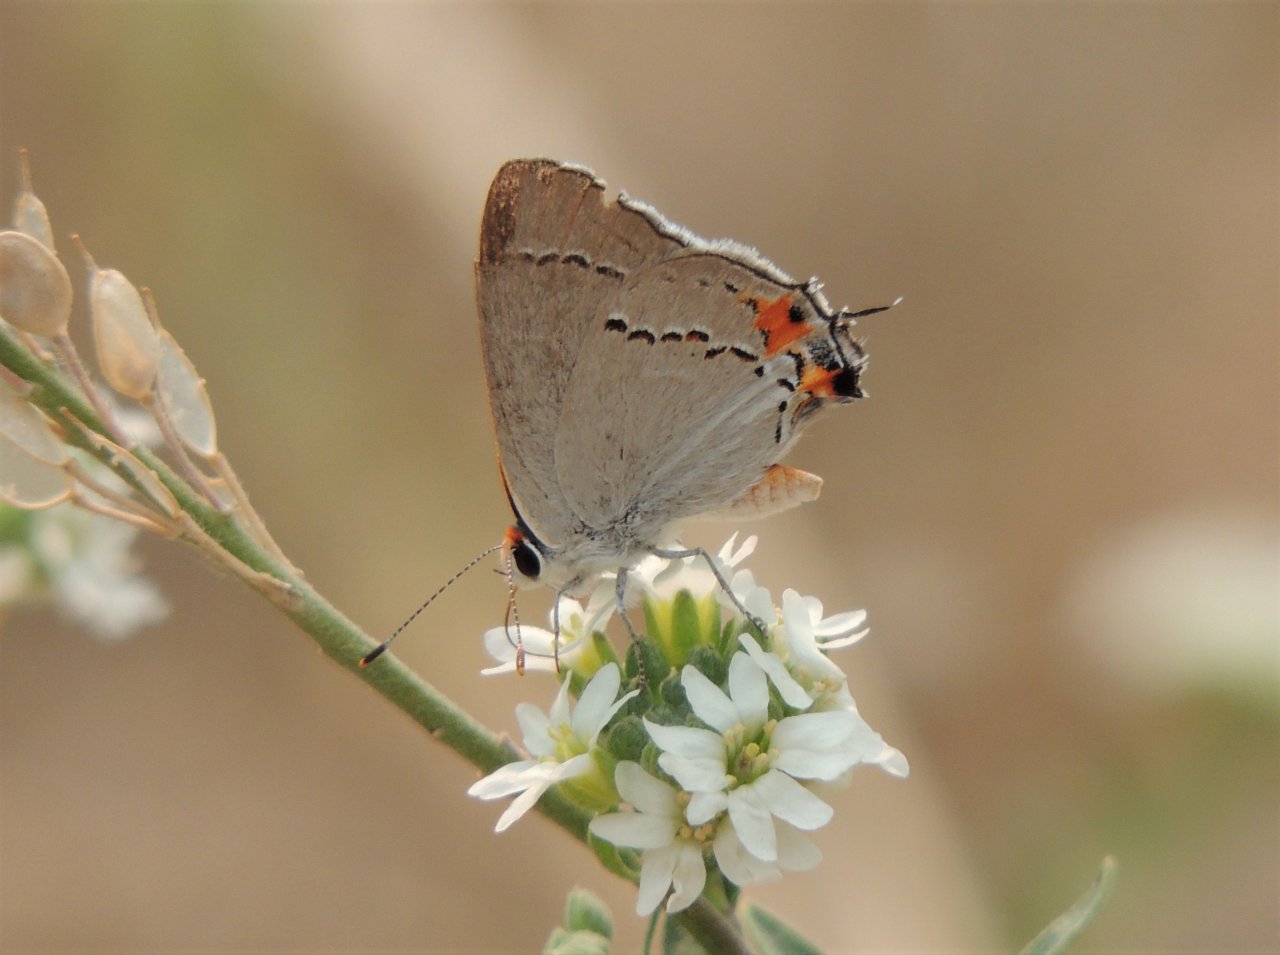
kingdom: Animalia
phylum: Arthropoda
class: Insecta
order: Lepidoptera
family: Lycaenidae
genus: Strymon
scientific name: Strymon melinus
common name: Gray Hairstreak
